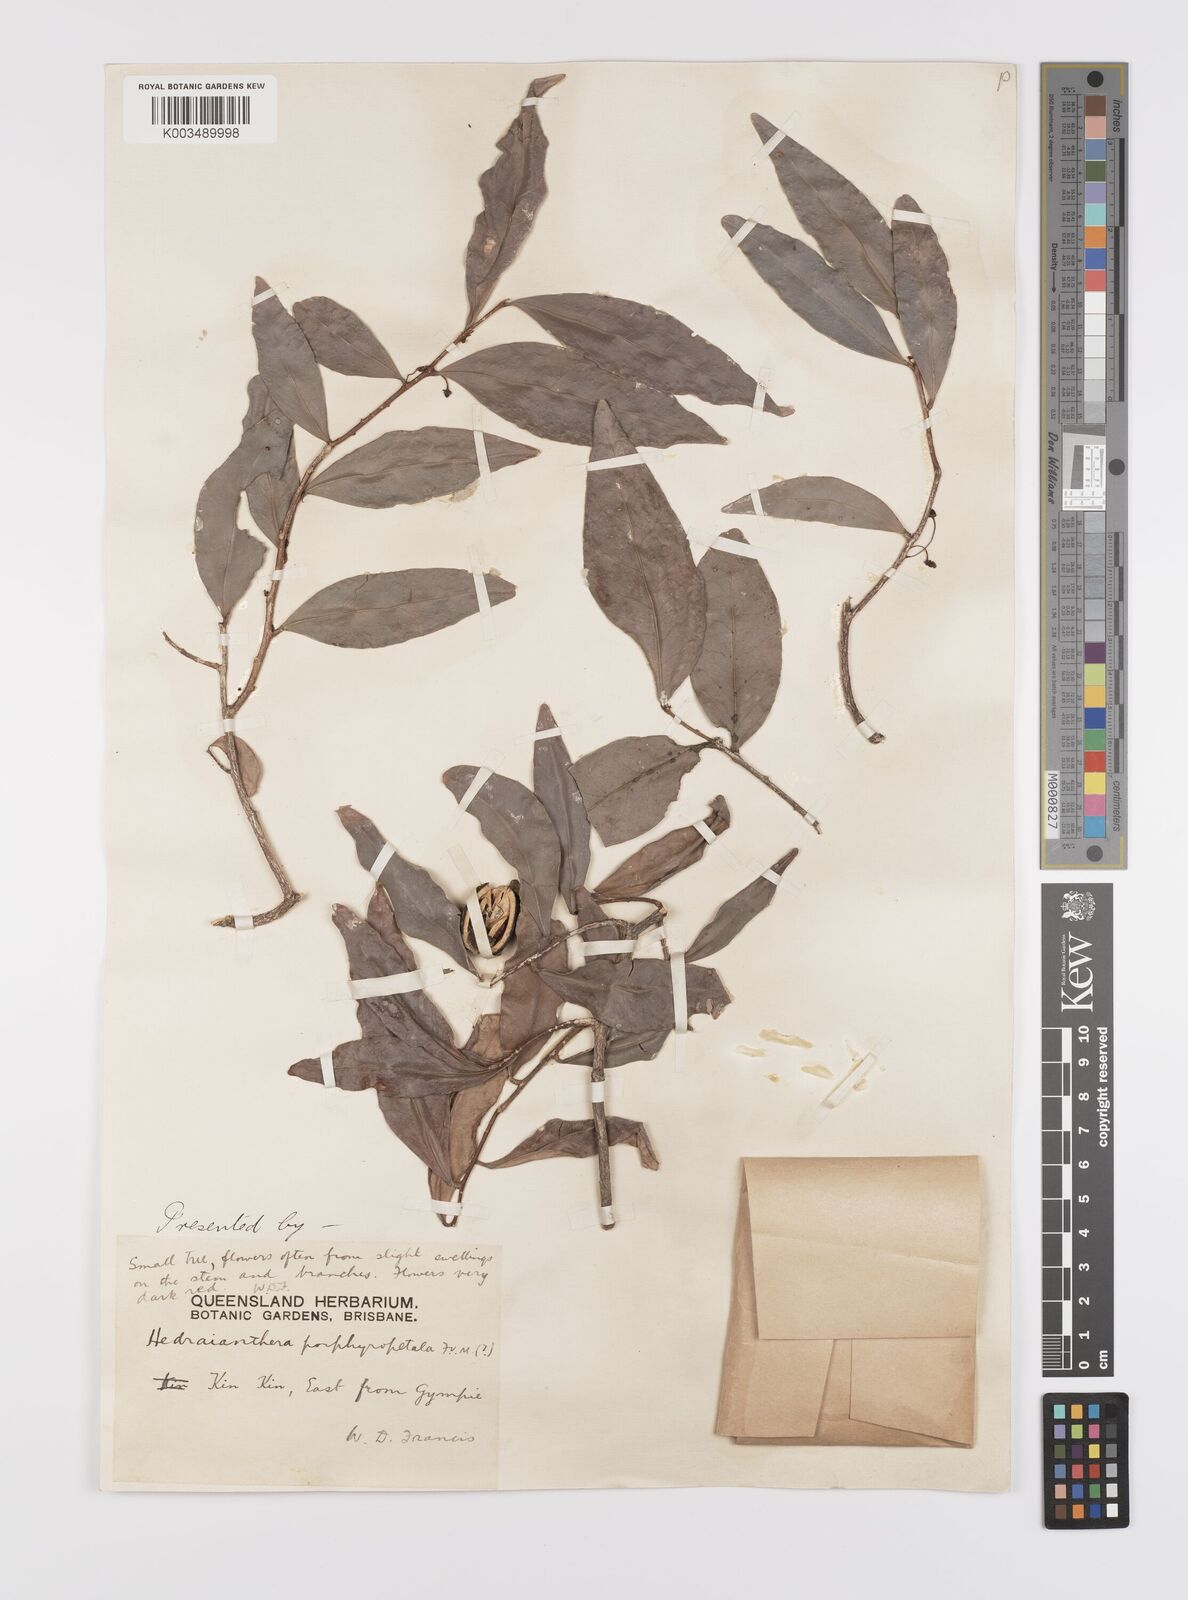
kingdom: Plantae
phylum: Tracheophyta
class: Magnoliopsida
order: Celastrales
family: Celastraceae
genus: Hedraianthera
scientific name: Hedraianthera porphyropetala
